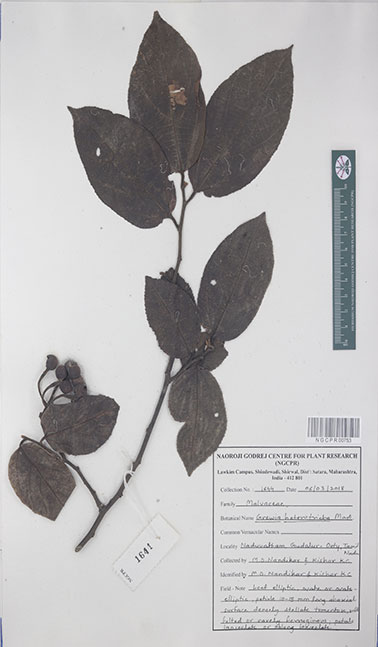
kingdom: Plantae
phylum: Tracheophyta
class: Magnoliopsida
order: Malvales
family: Malvaceae
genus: Grewia
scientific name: Grewia heterotricha
